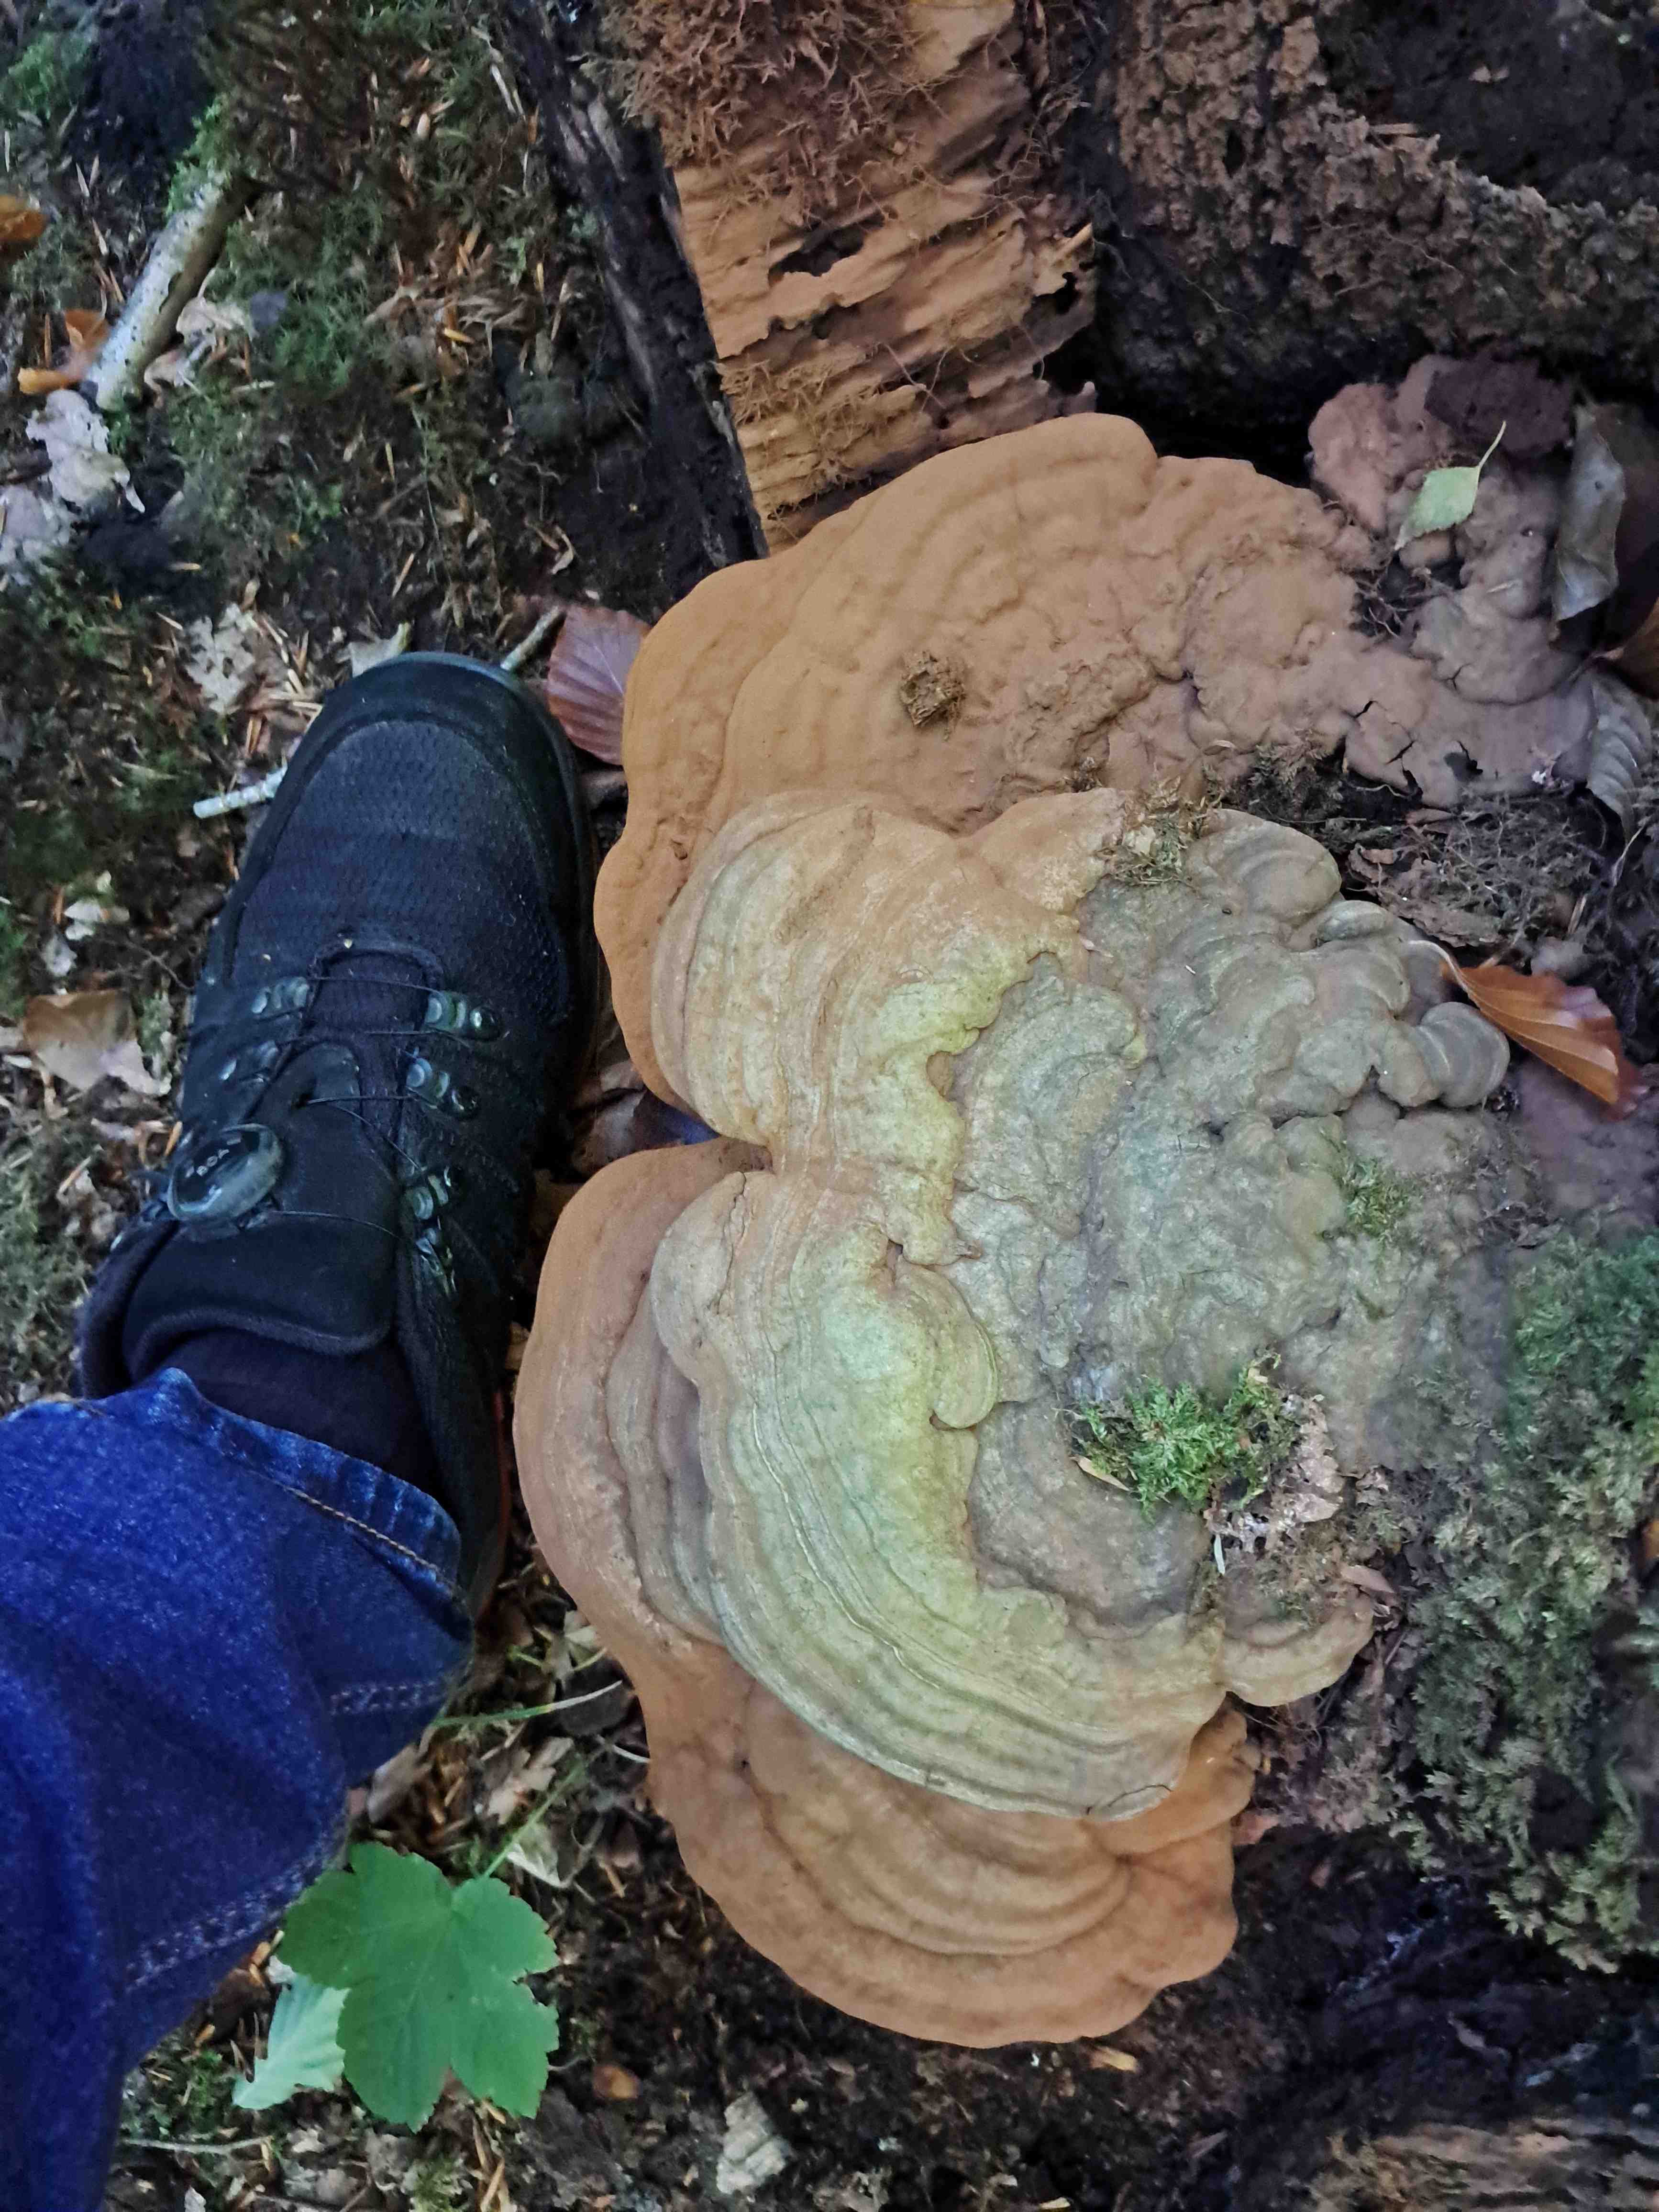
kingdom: Fungi
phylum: Basidiomycota
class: Agaricomycetes
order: Polyporales
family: Polyporaceae
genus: Ganoderma
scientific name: Ganoderma applanatum
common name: flad lakporesvamp
